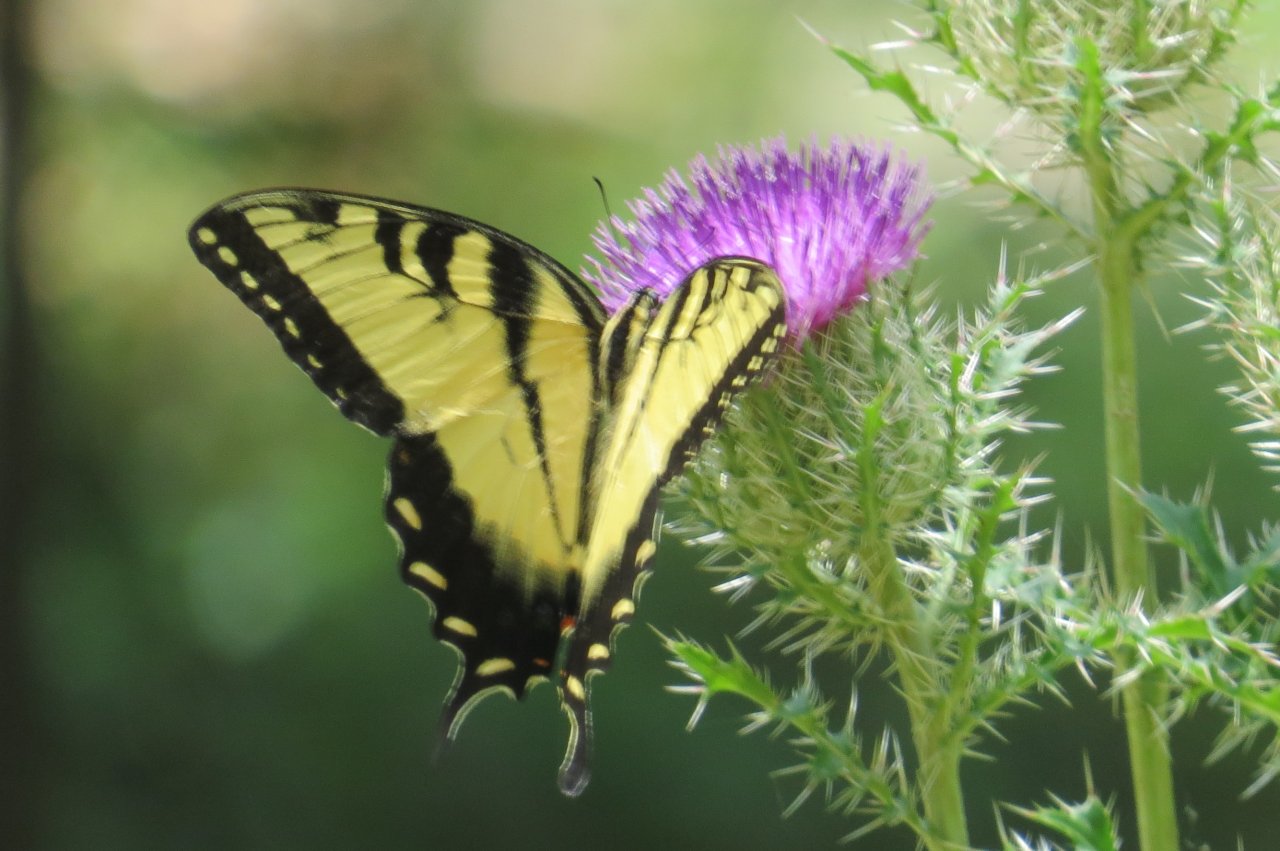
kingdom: Animalia
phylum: Arthropoda
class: Insecta
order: Lepidoptera
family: Papilionidae
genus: Pterourus
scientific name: Pterourus glaucus
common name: Eastern Tiger Swallowtail
